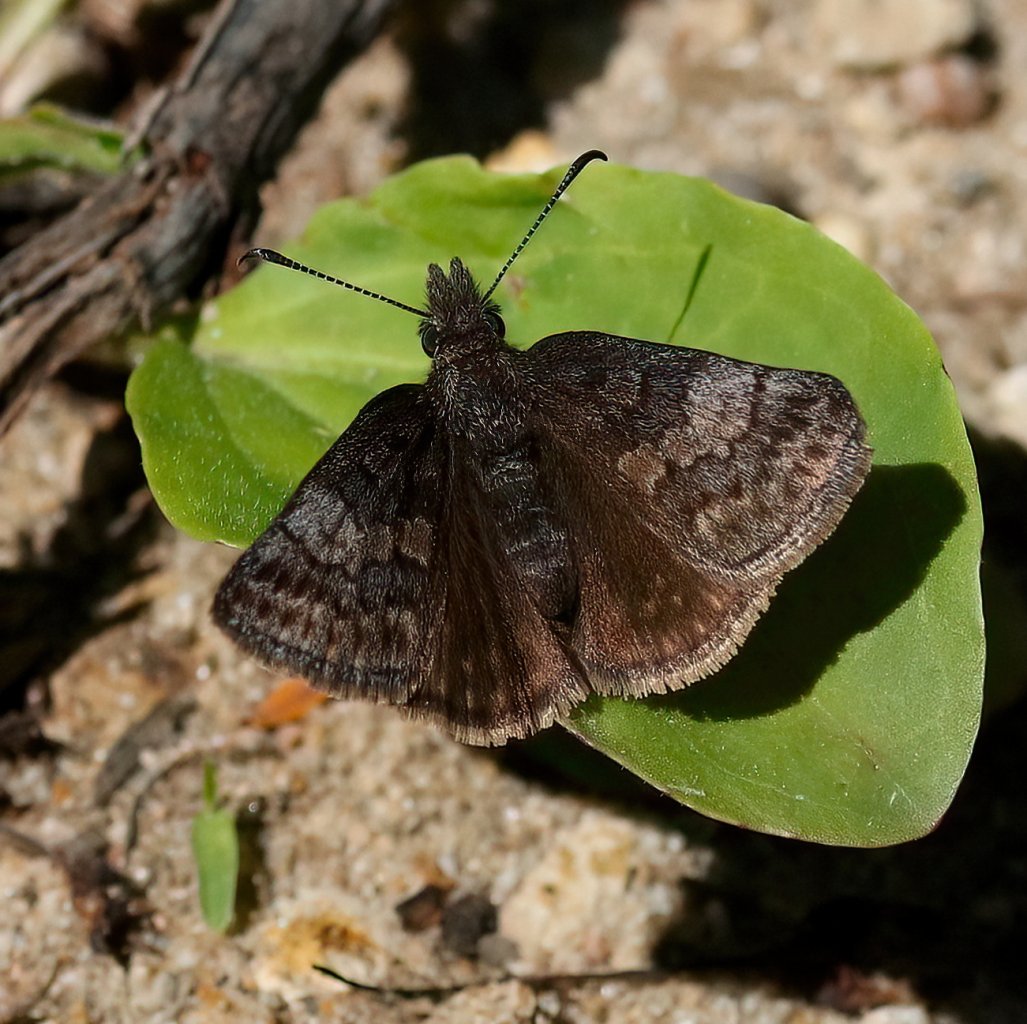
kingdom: Animalia
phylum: Arthropoda
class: Insecta
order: Lepidoptera
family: Hesperiidae
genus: Erynnis
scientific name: Erynnis icelus
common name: Dreamy Duskywing
